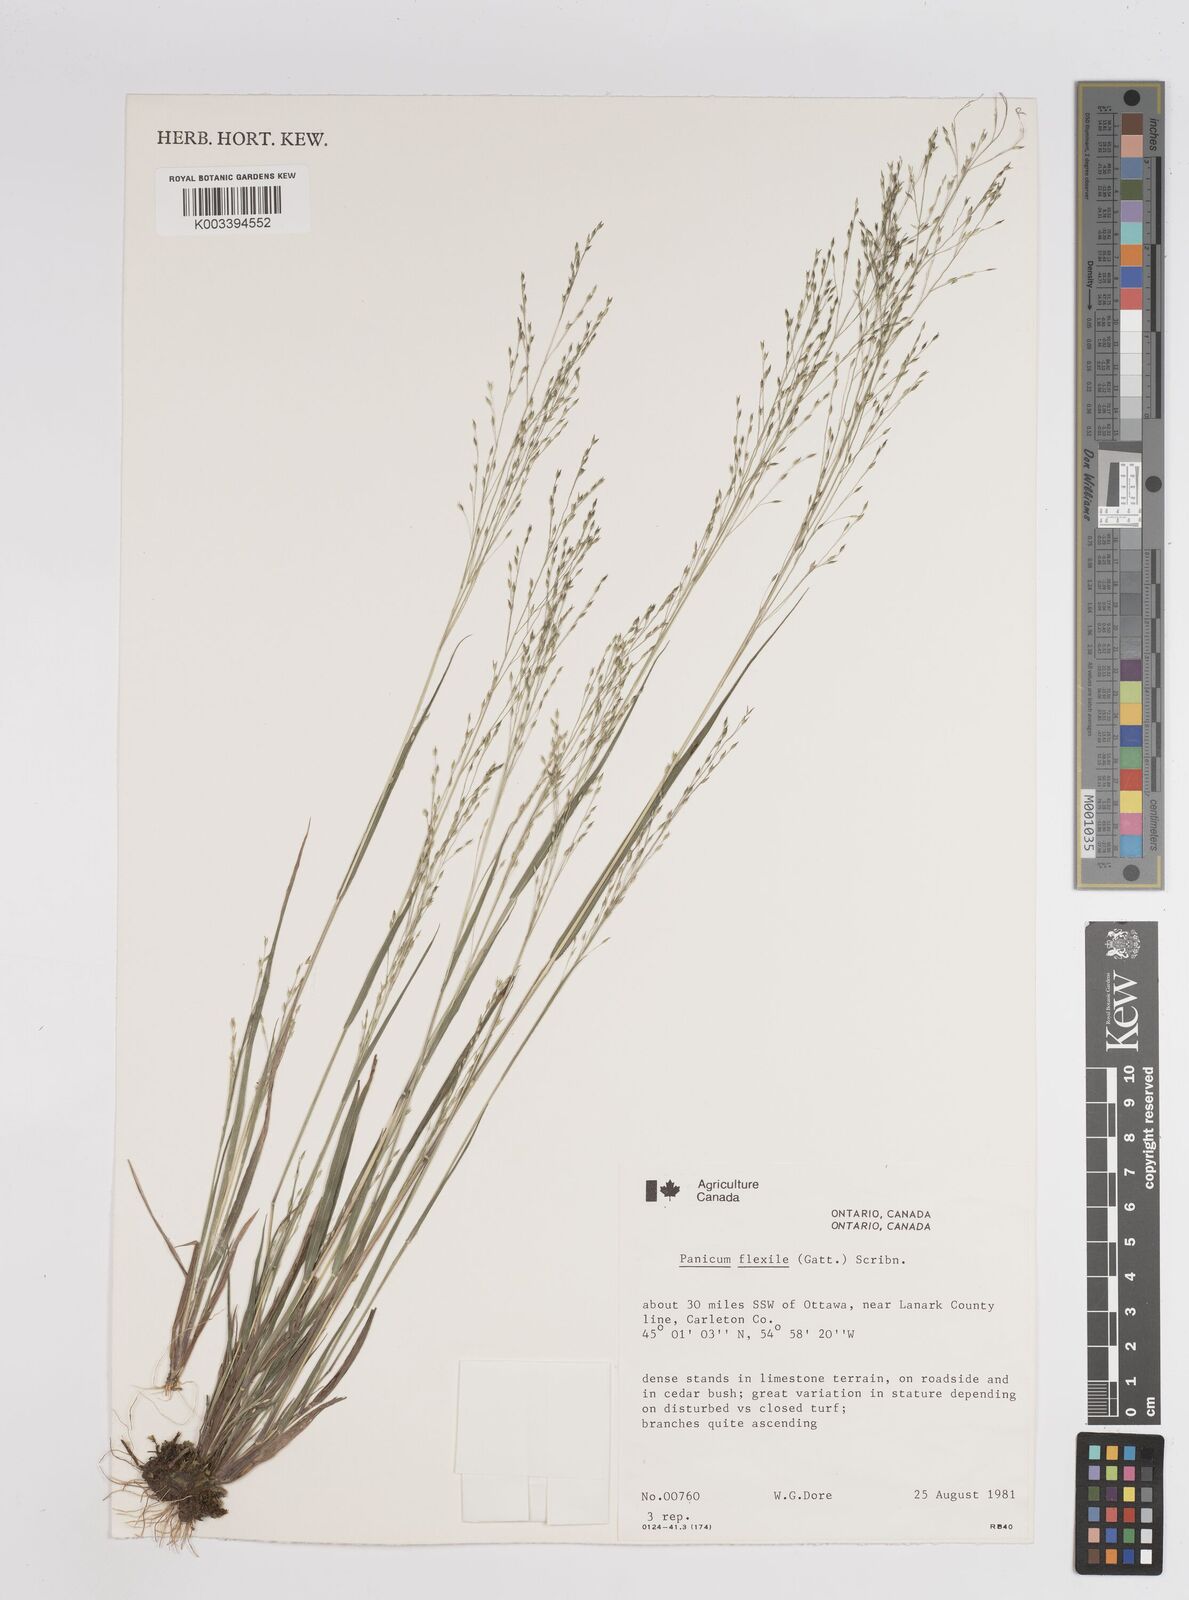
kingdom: Plantae
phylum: Tracheophyta
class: Liliopsida
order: Poales
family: Poaceae
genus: Panicum
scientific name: Panicum flexile
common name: Wiry panicgrass
